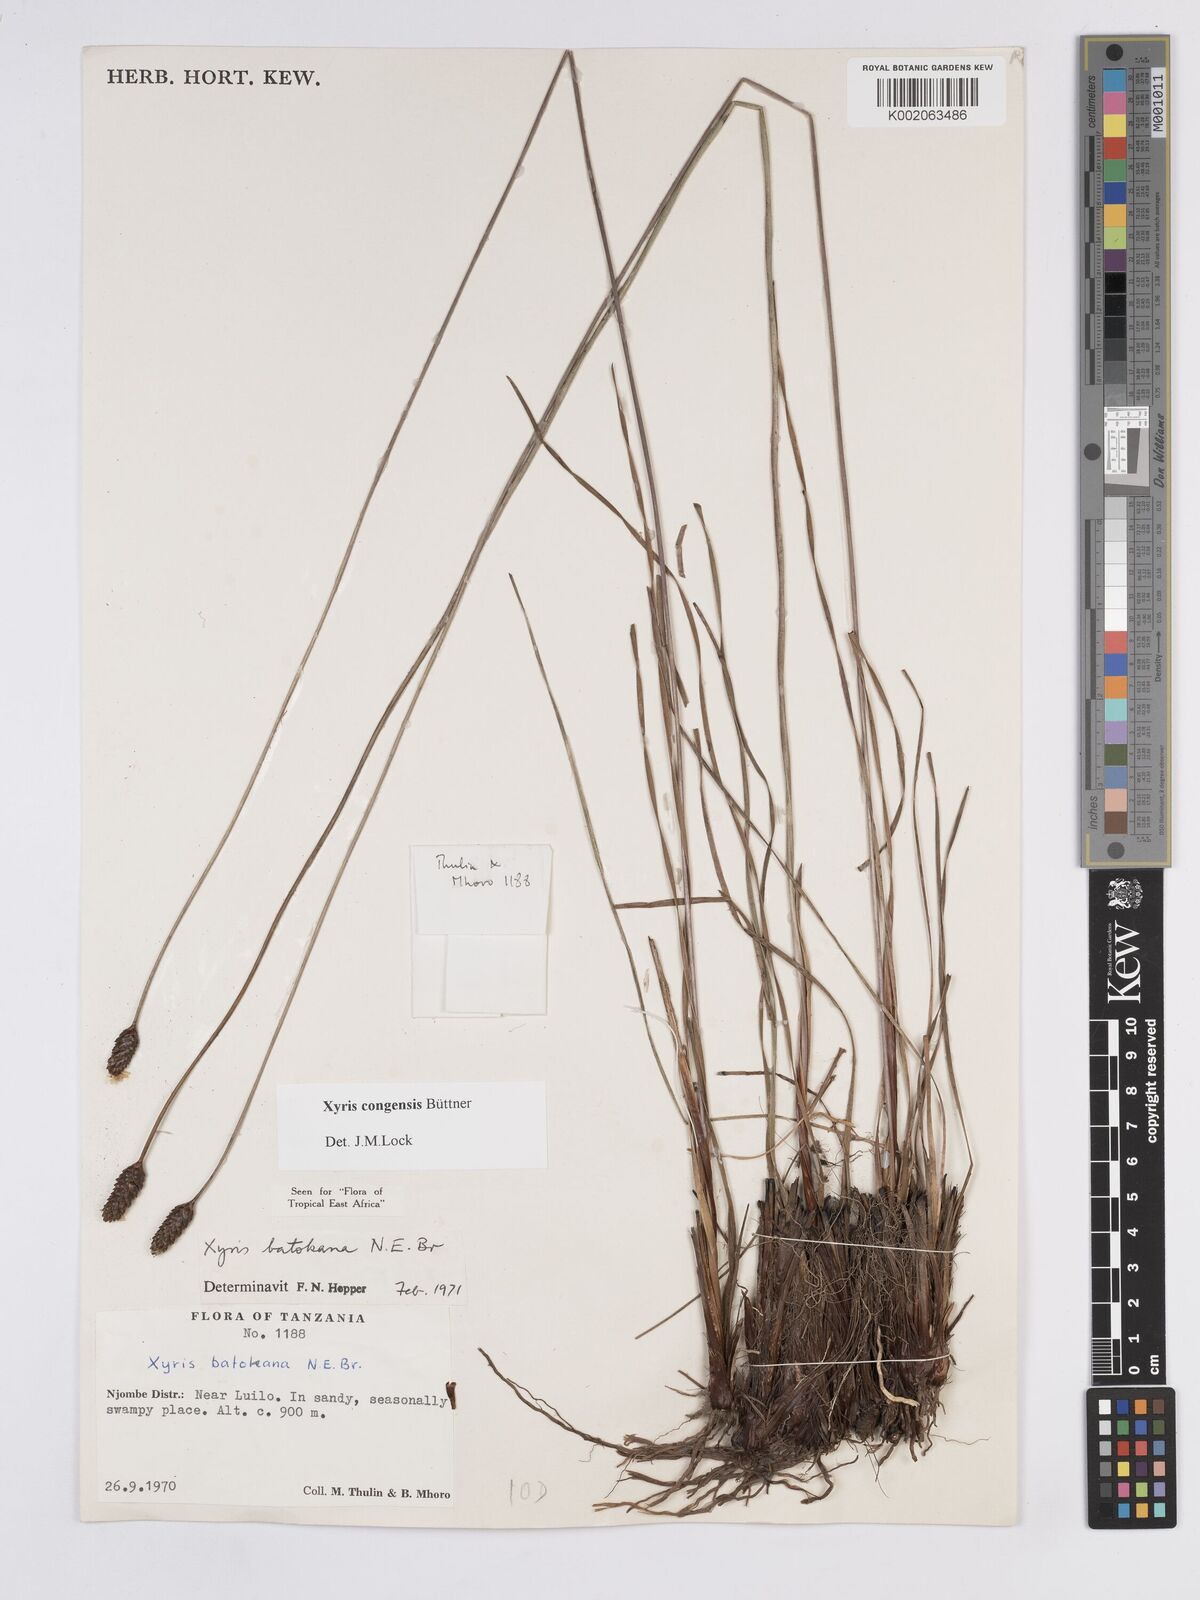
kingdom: Plantae
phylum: Tracheophyta
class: Liliopsida
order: Poales
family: Xyridaceae
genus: Xyris
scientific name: Xyris congensis
